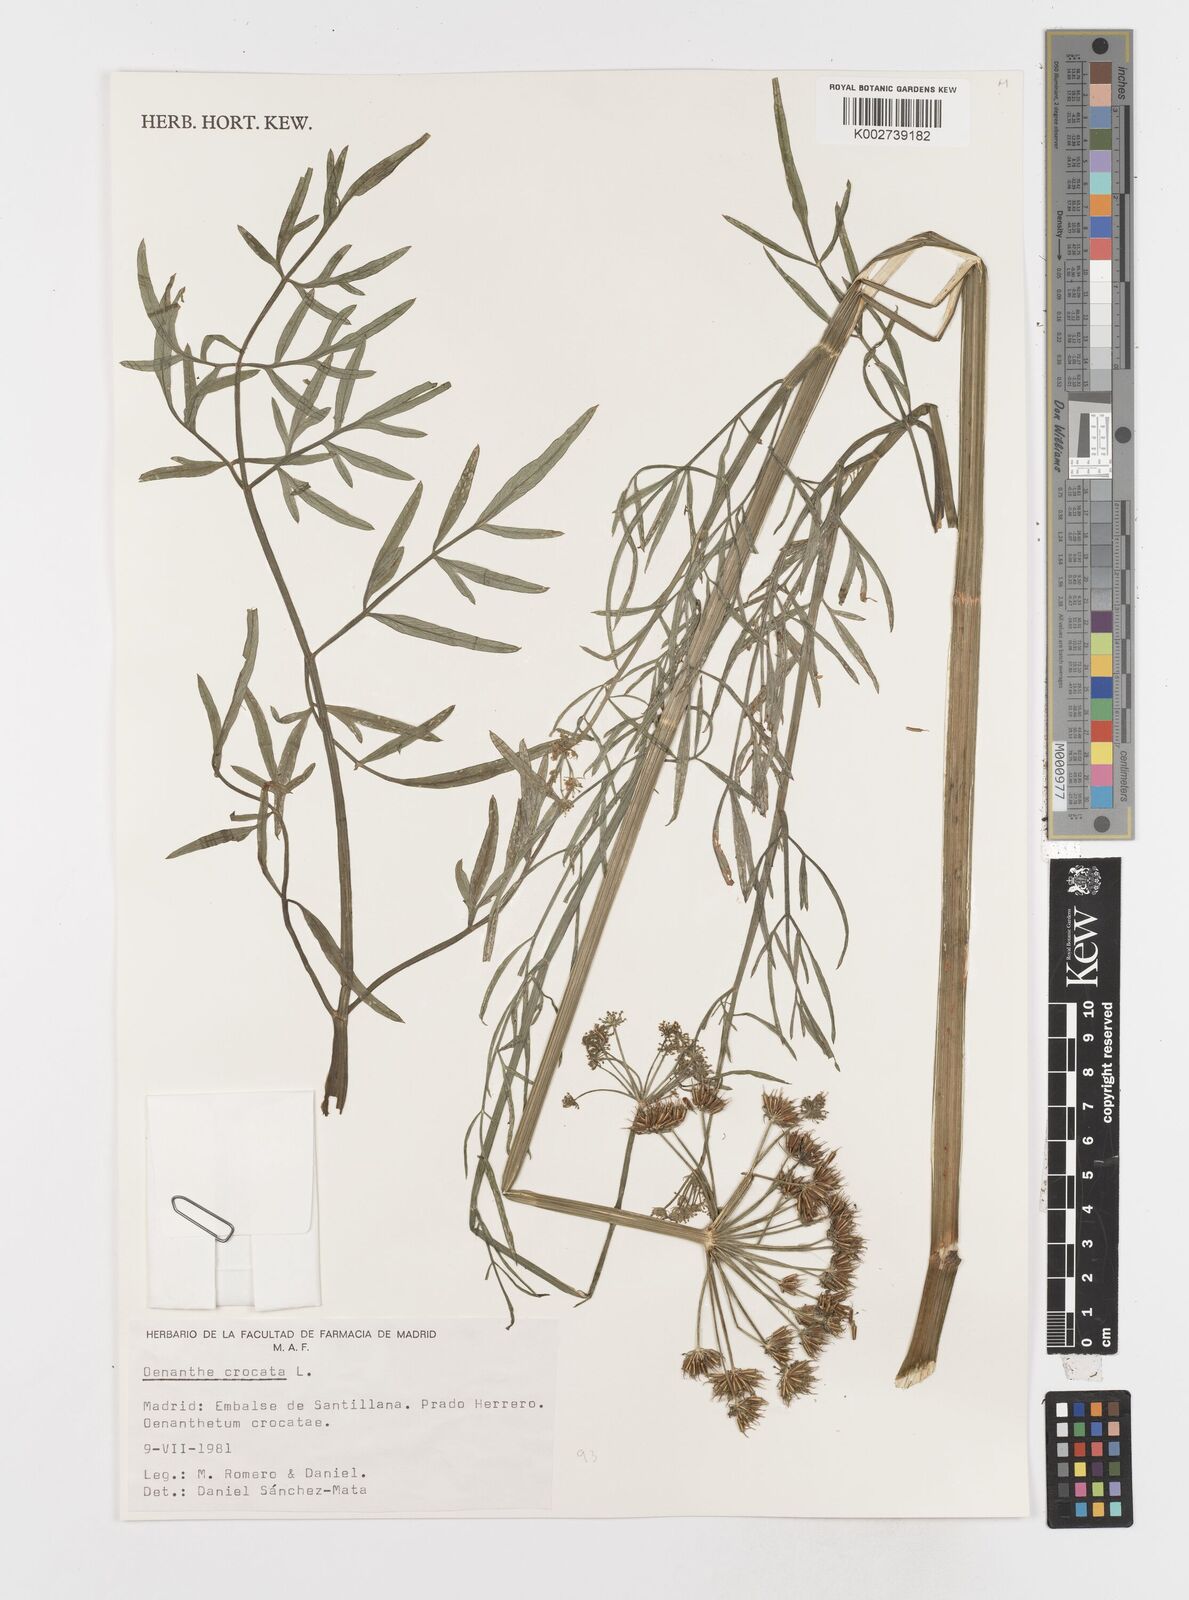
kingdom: Plantae
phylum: Tracheophyta
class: Magnoliopsida
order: Apiales
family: Apiaceae
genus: Oenanthe
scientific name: Oenanthe crocata
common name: Hemlock water-dropwort
